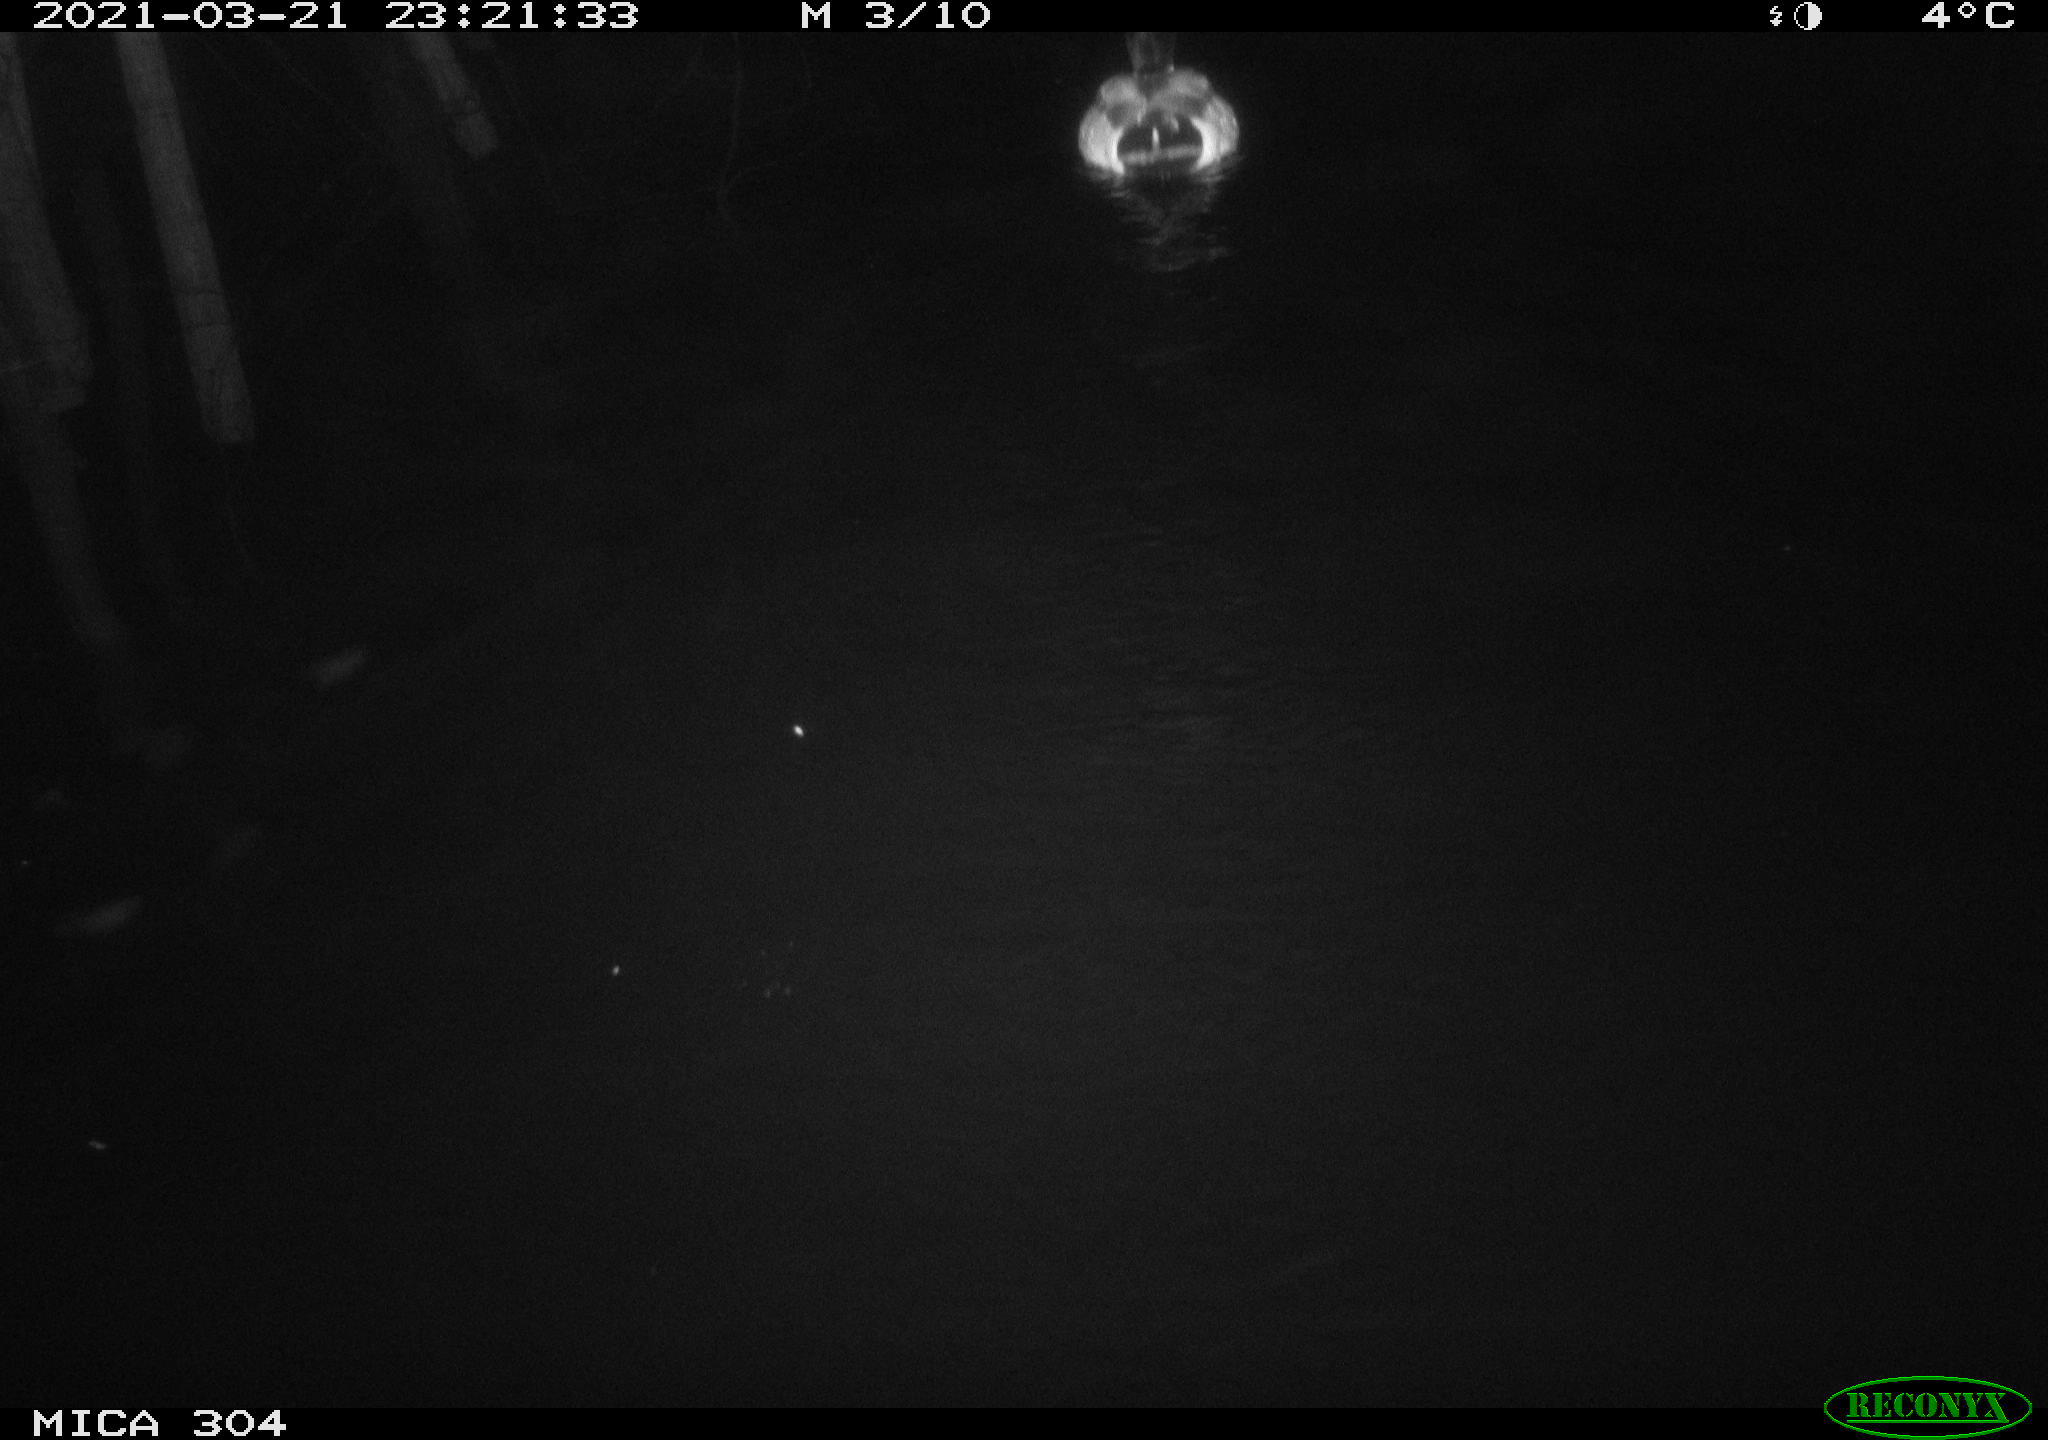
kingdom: Animalia
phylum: Chordata
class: Aves
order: Anseriformes
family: Anatidae
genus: Anas
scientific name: Anas platyrhynchos
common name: Mallard
